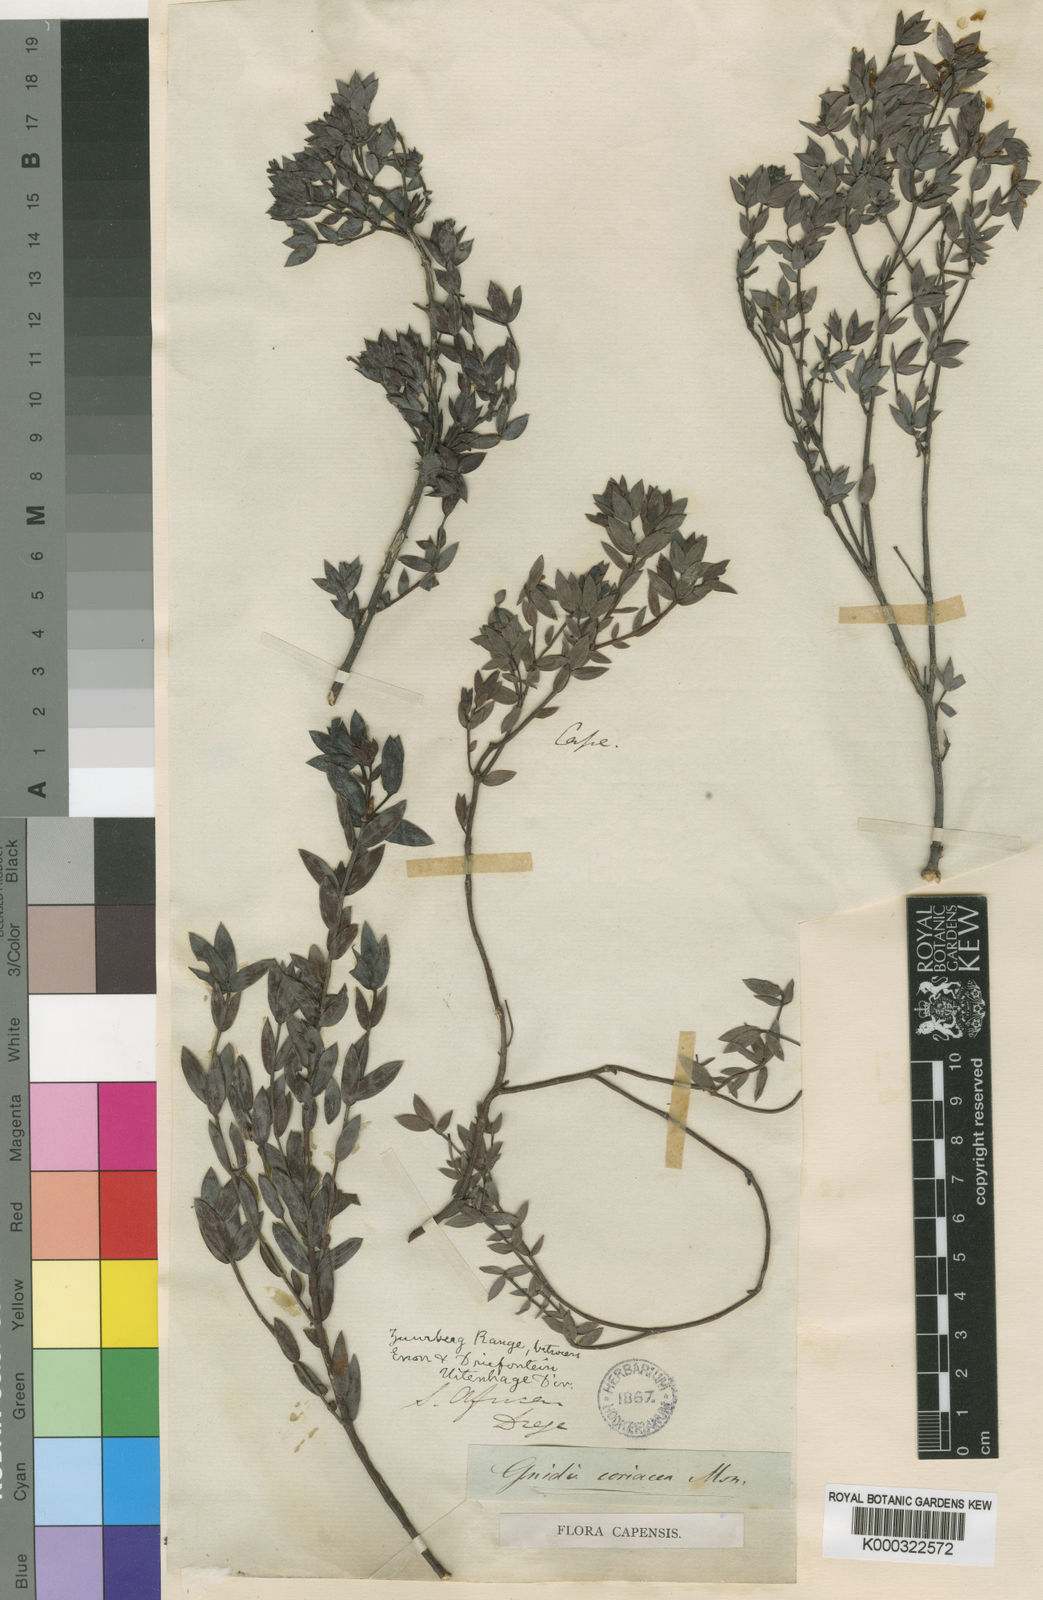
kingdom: Plantae
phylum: Tracheophyta
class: Magnoliopsida
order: Malvales
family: Thymelaeaceae
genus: Gnidia
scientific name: Gnidia coriacea
